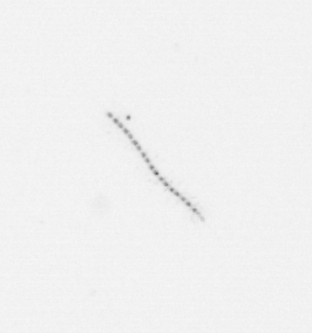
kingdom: Chromista
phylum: Ochrophyta
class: Bacillariophyceae
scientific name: Bacillariophyceae
